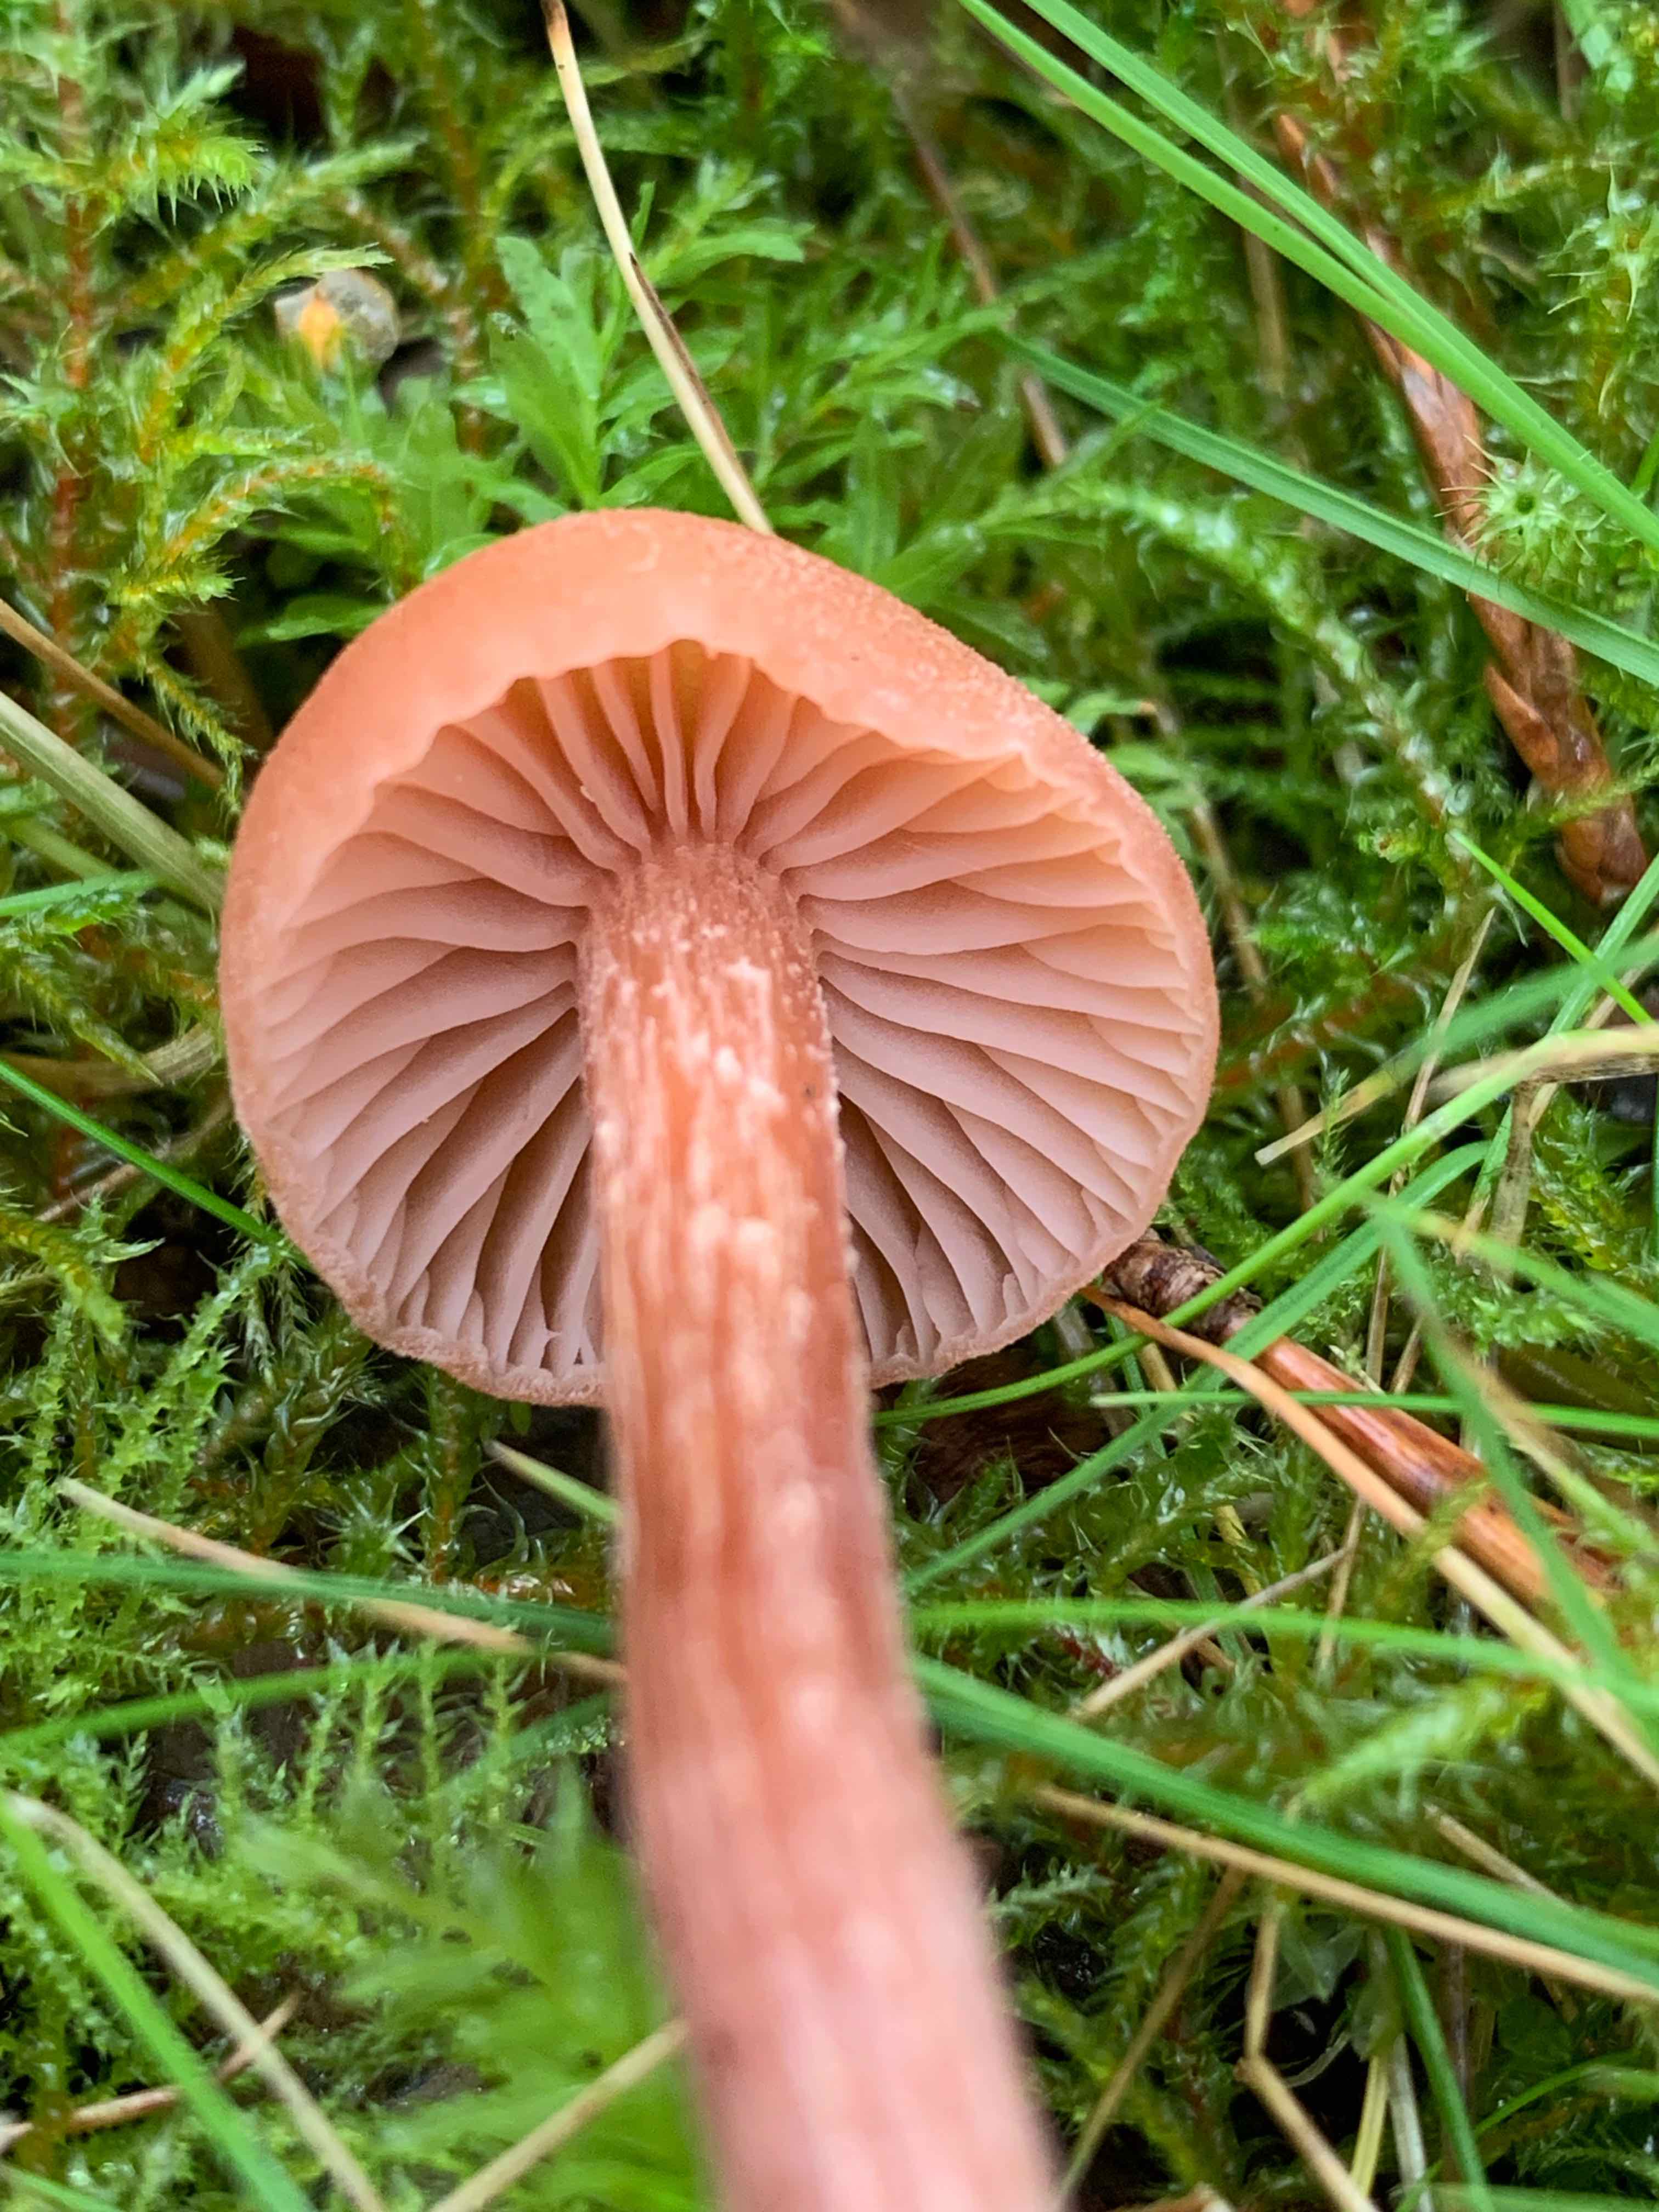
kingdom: Fungi
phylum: Basidiomycota
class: Agaricomycetes
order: Agaricales
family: Hydnangiaceae
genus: Laccaria
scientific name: Laccaria proxima
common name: stor ametysthat
